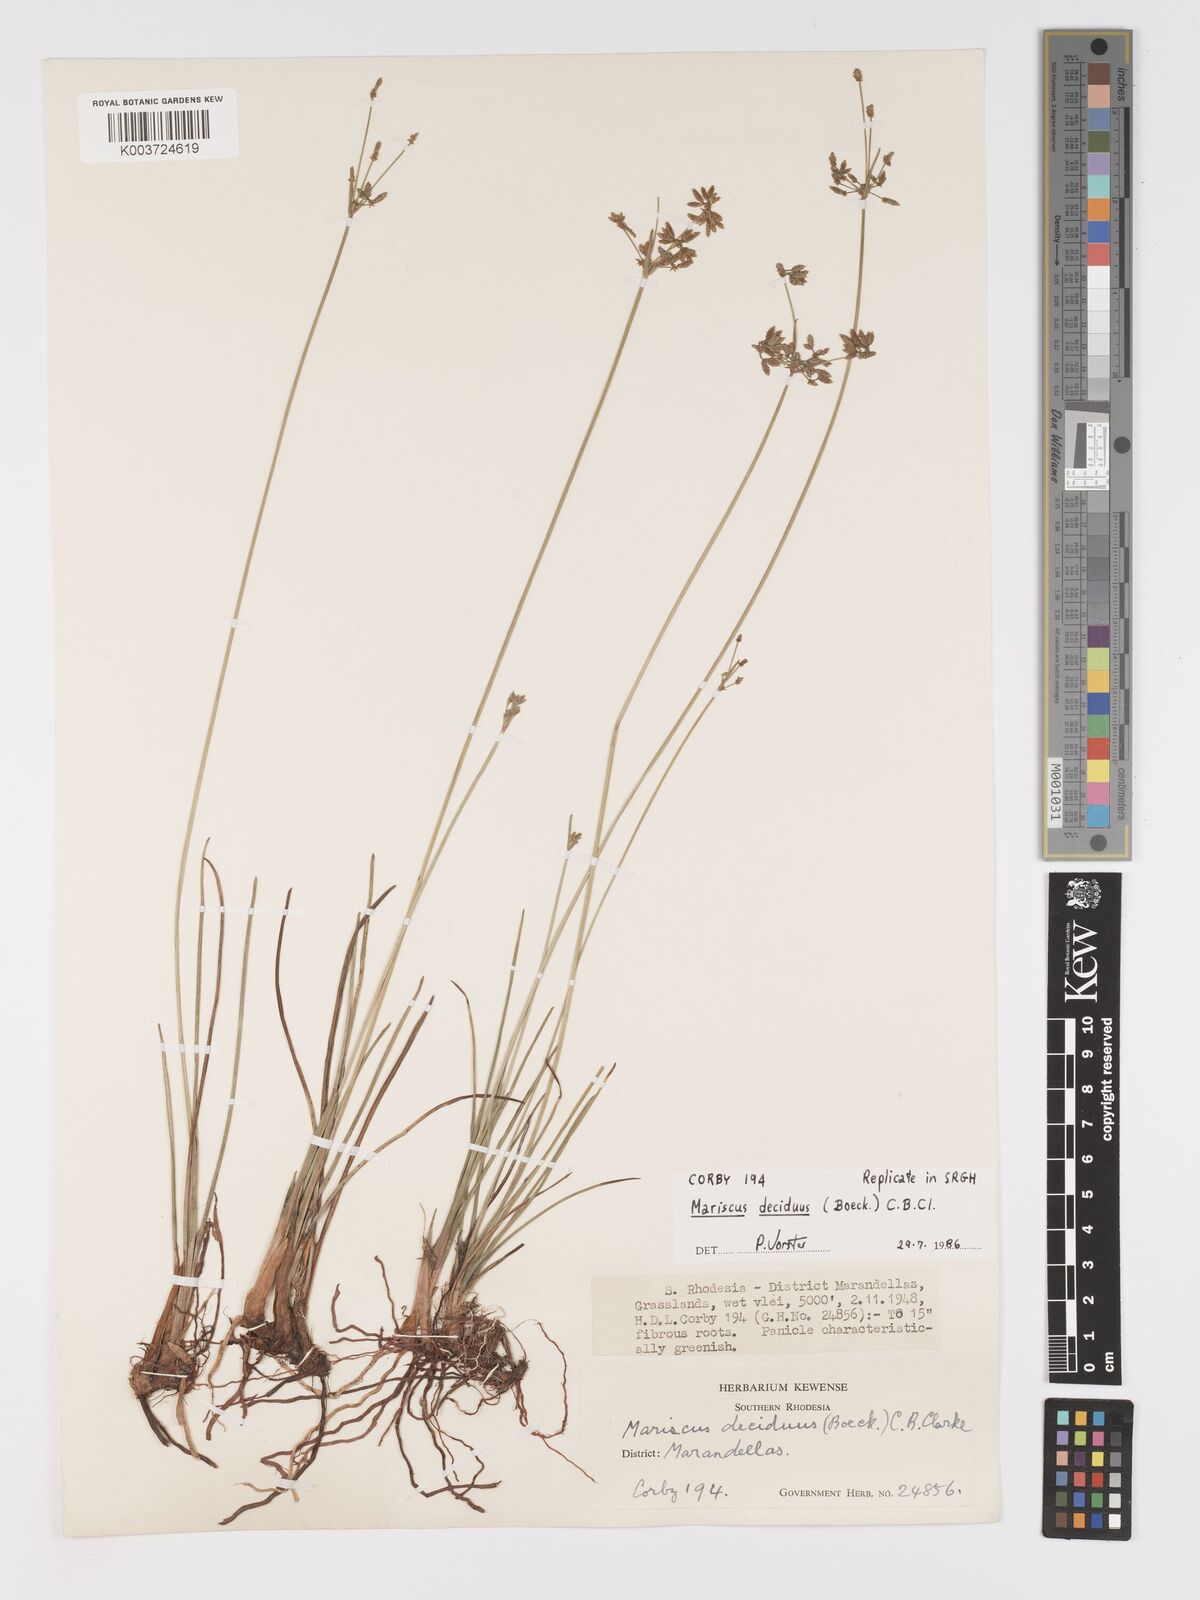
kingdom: Plantae
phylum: Tracheophyta
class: Liliopsida
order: Poales
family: Cyperaceae
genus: Cyperus
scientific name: Cyperus deciduus
